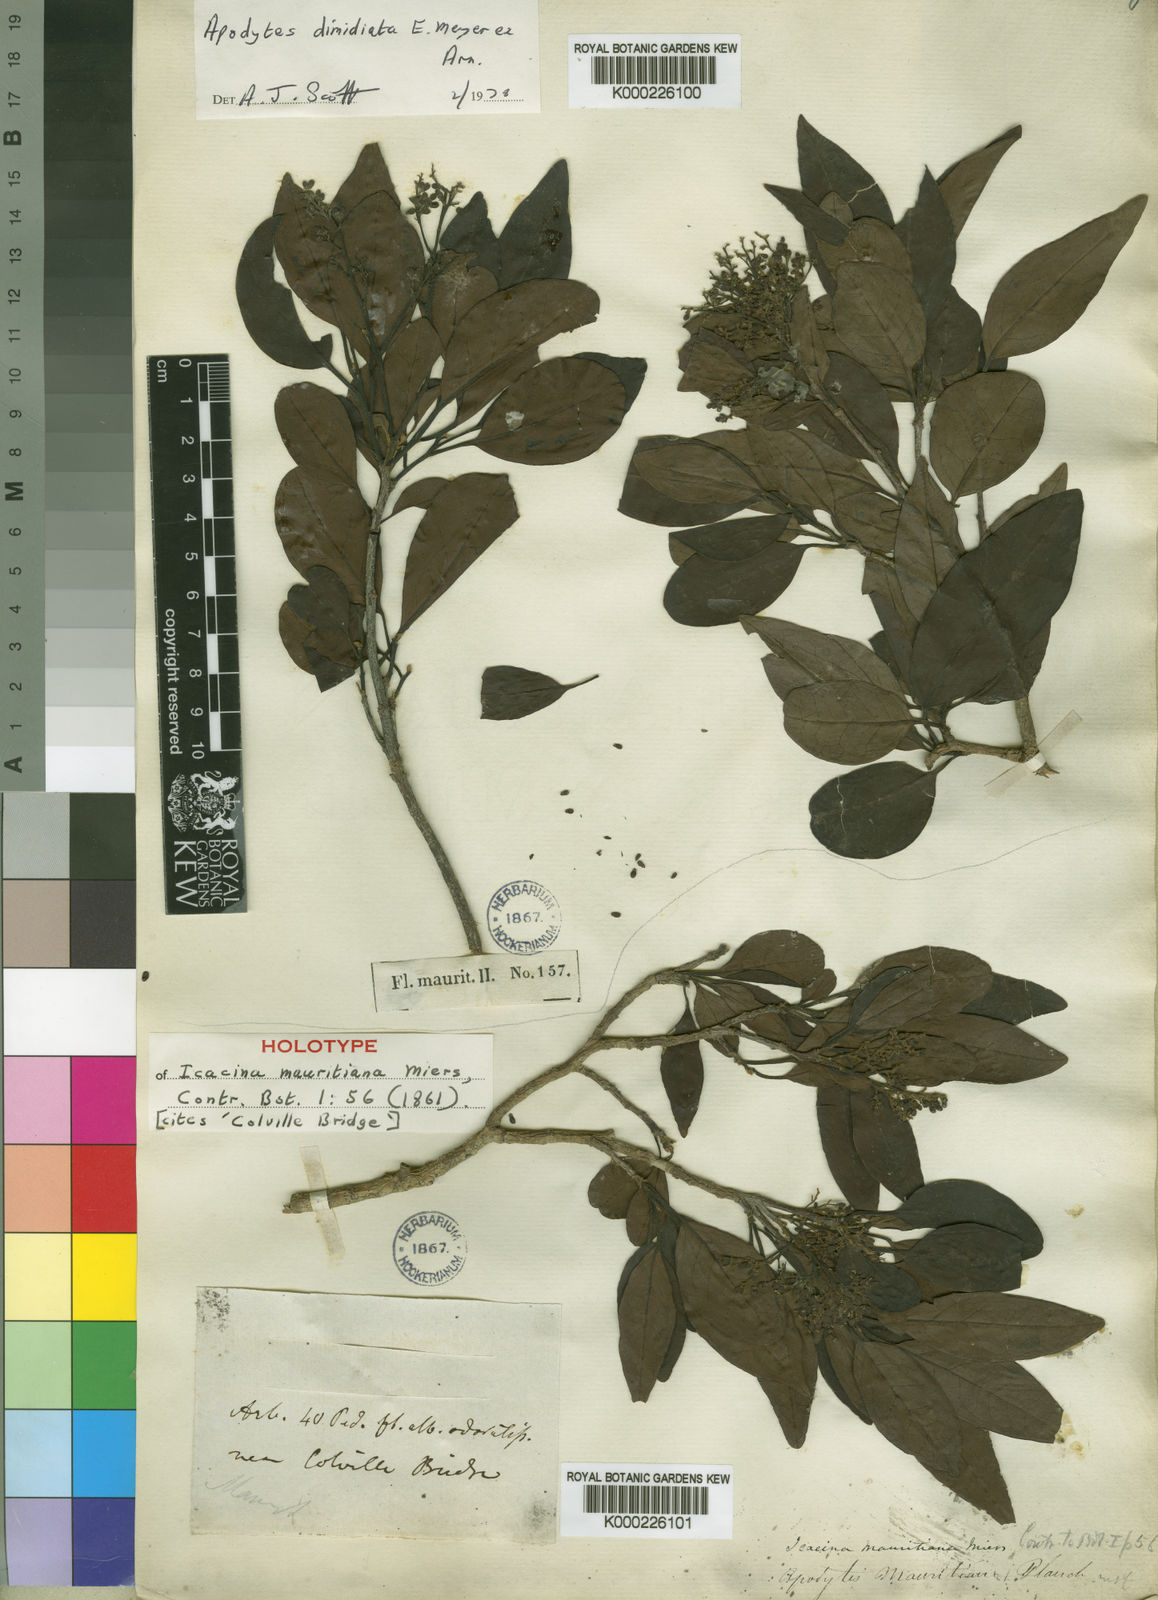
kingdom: Plantae
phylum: Tracheophyta
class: Magnoliopsida
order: Metteniusales
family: Metteniusaceae
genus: Apodytes
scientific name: Apodytes dimidiata
